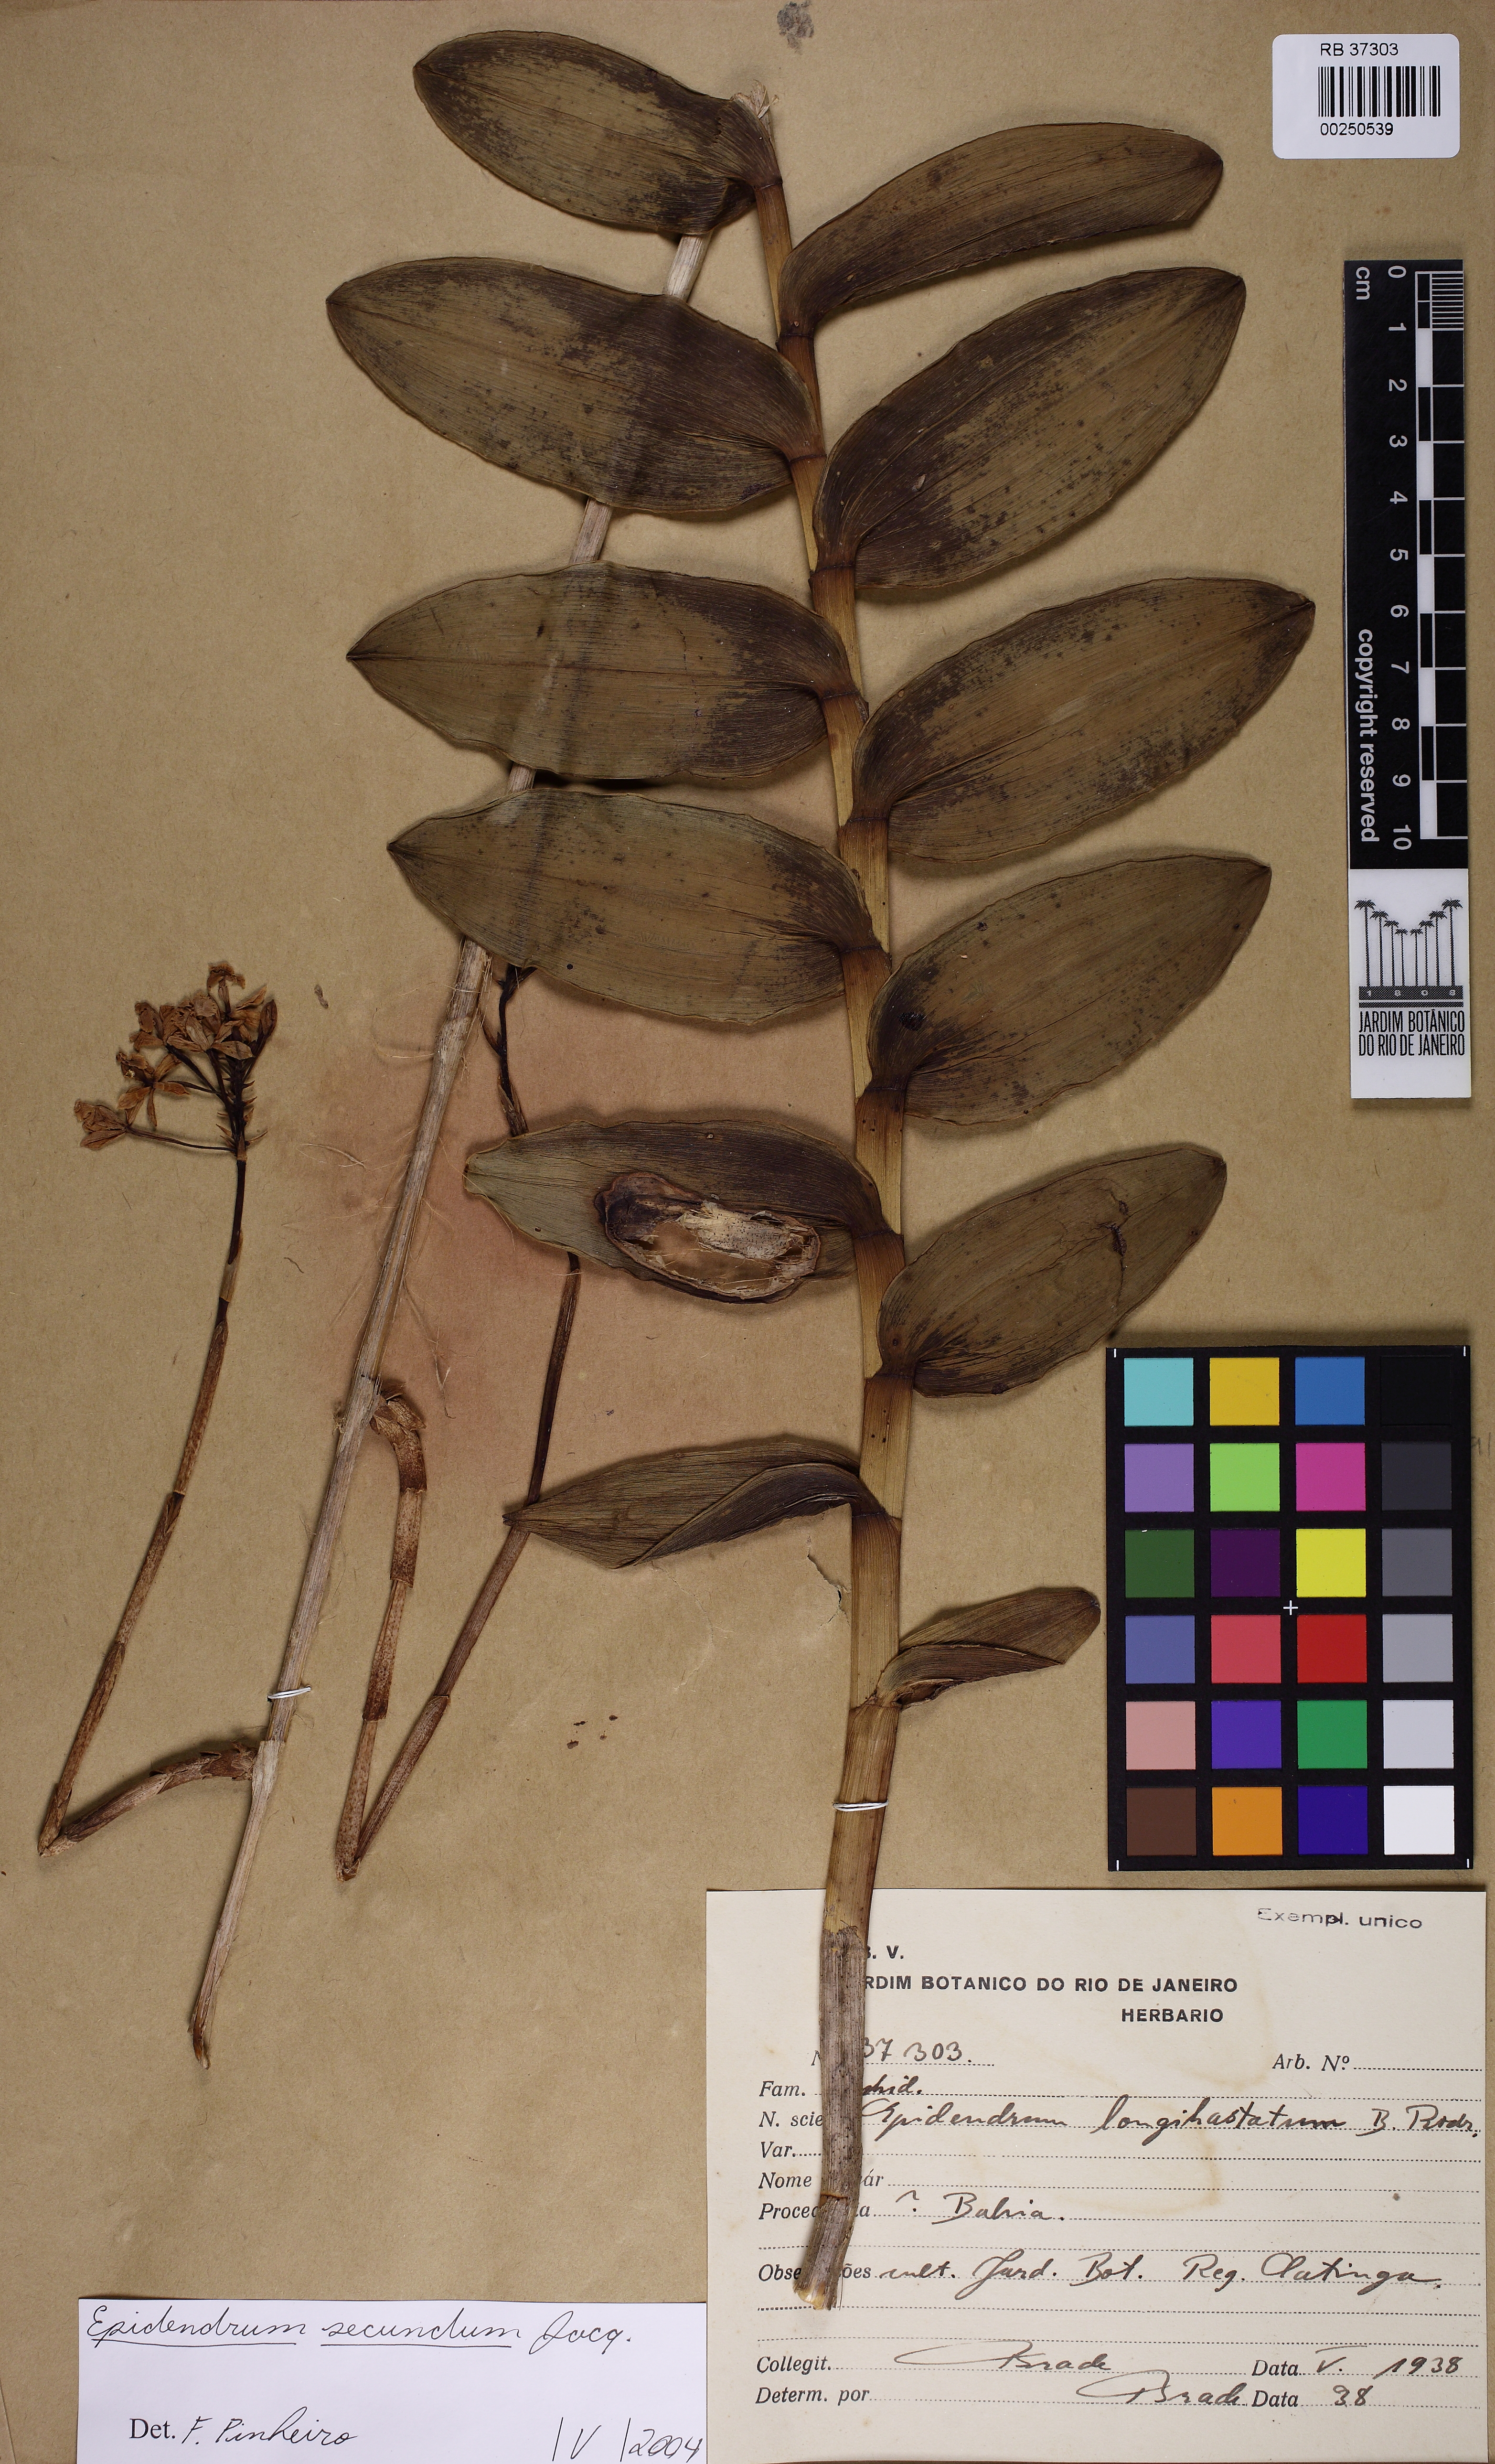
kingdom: Plantae
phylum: Tracheophyta
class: Liliopsida
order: Asparagales
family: Orchidaceae
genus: Epidendrum
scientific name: Epidendrum secundum
